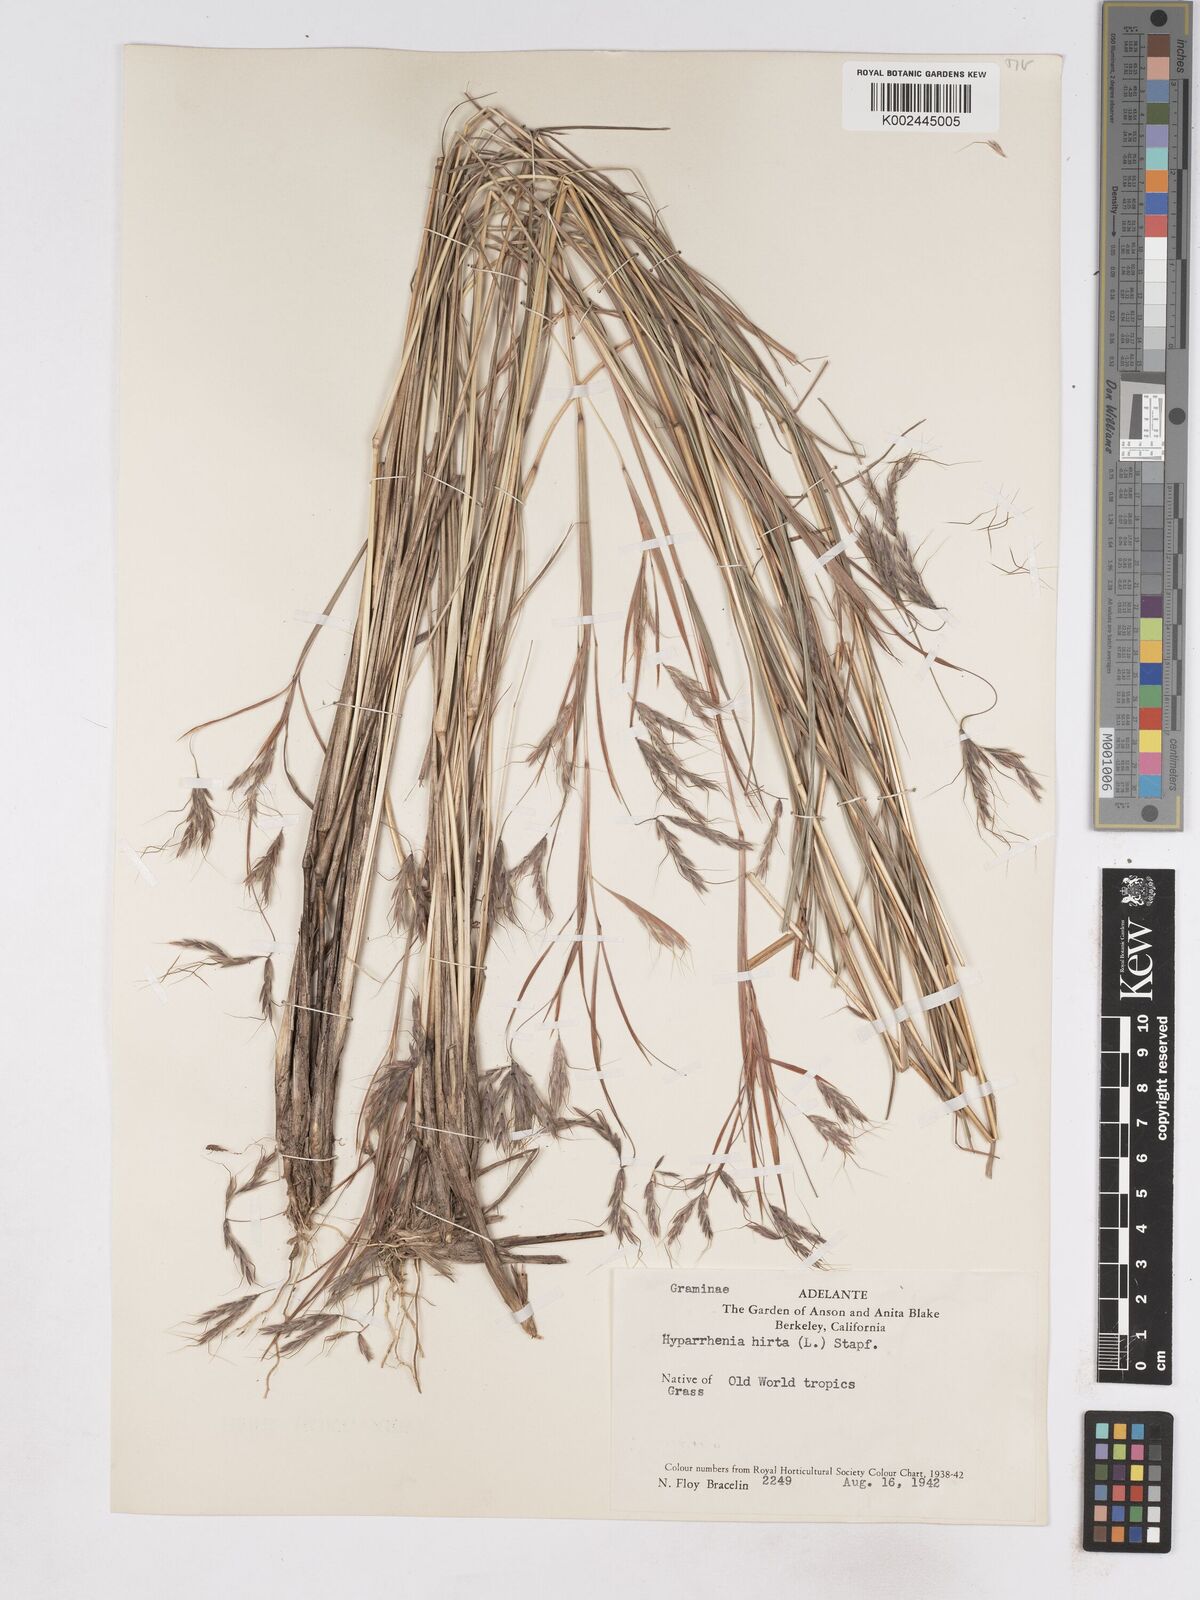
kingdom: Plantae
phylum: Tracheophyta
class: Liliopsida
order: Poales
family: Poaceae
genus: Hyparrhenia
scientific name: Hyparrhenia hirta
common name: Thatching grass
